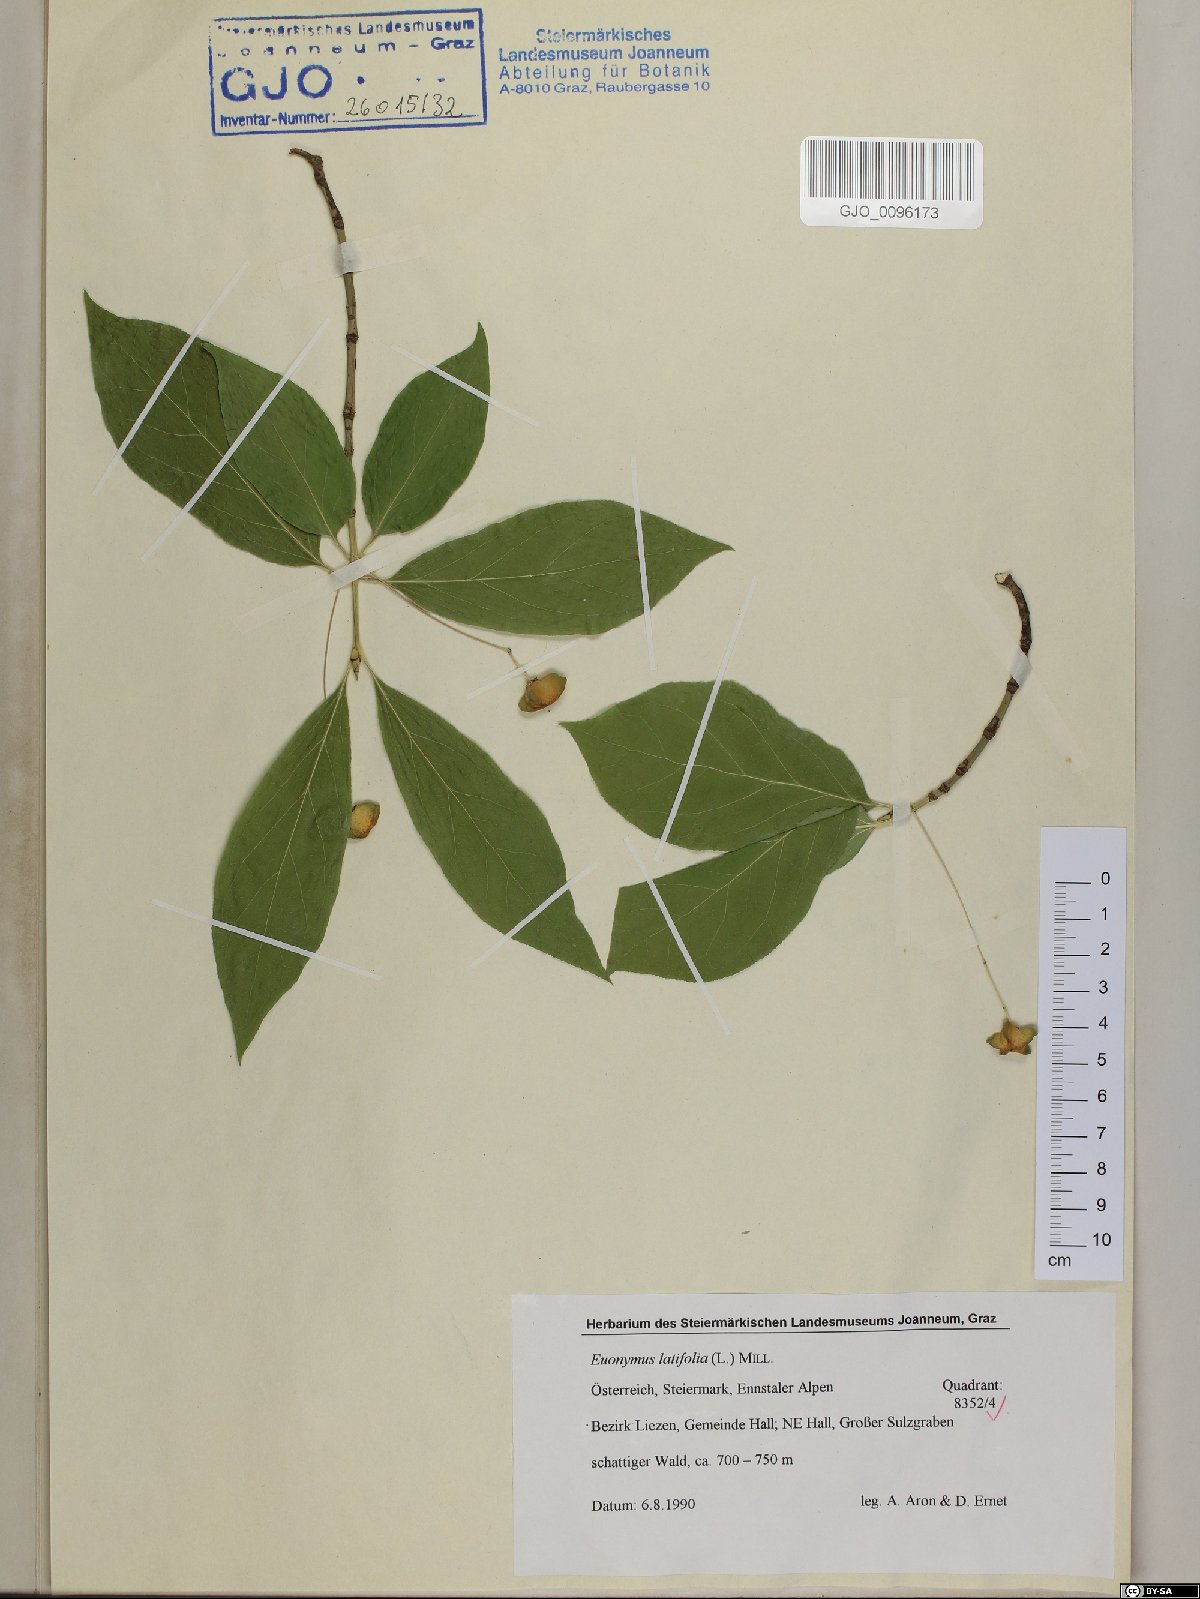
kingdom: Plantae
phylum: Tracheophyta
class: Magnoliopsida
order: Celastrales
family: Celastraceae
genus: Euonymus
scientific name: Euonymus latifolius
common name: Large-leaved spindle
